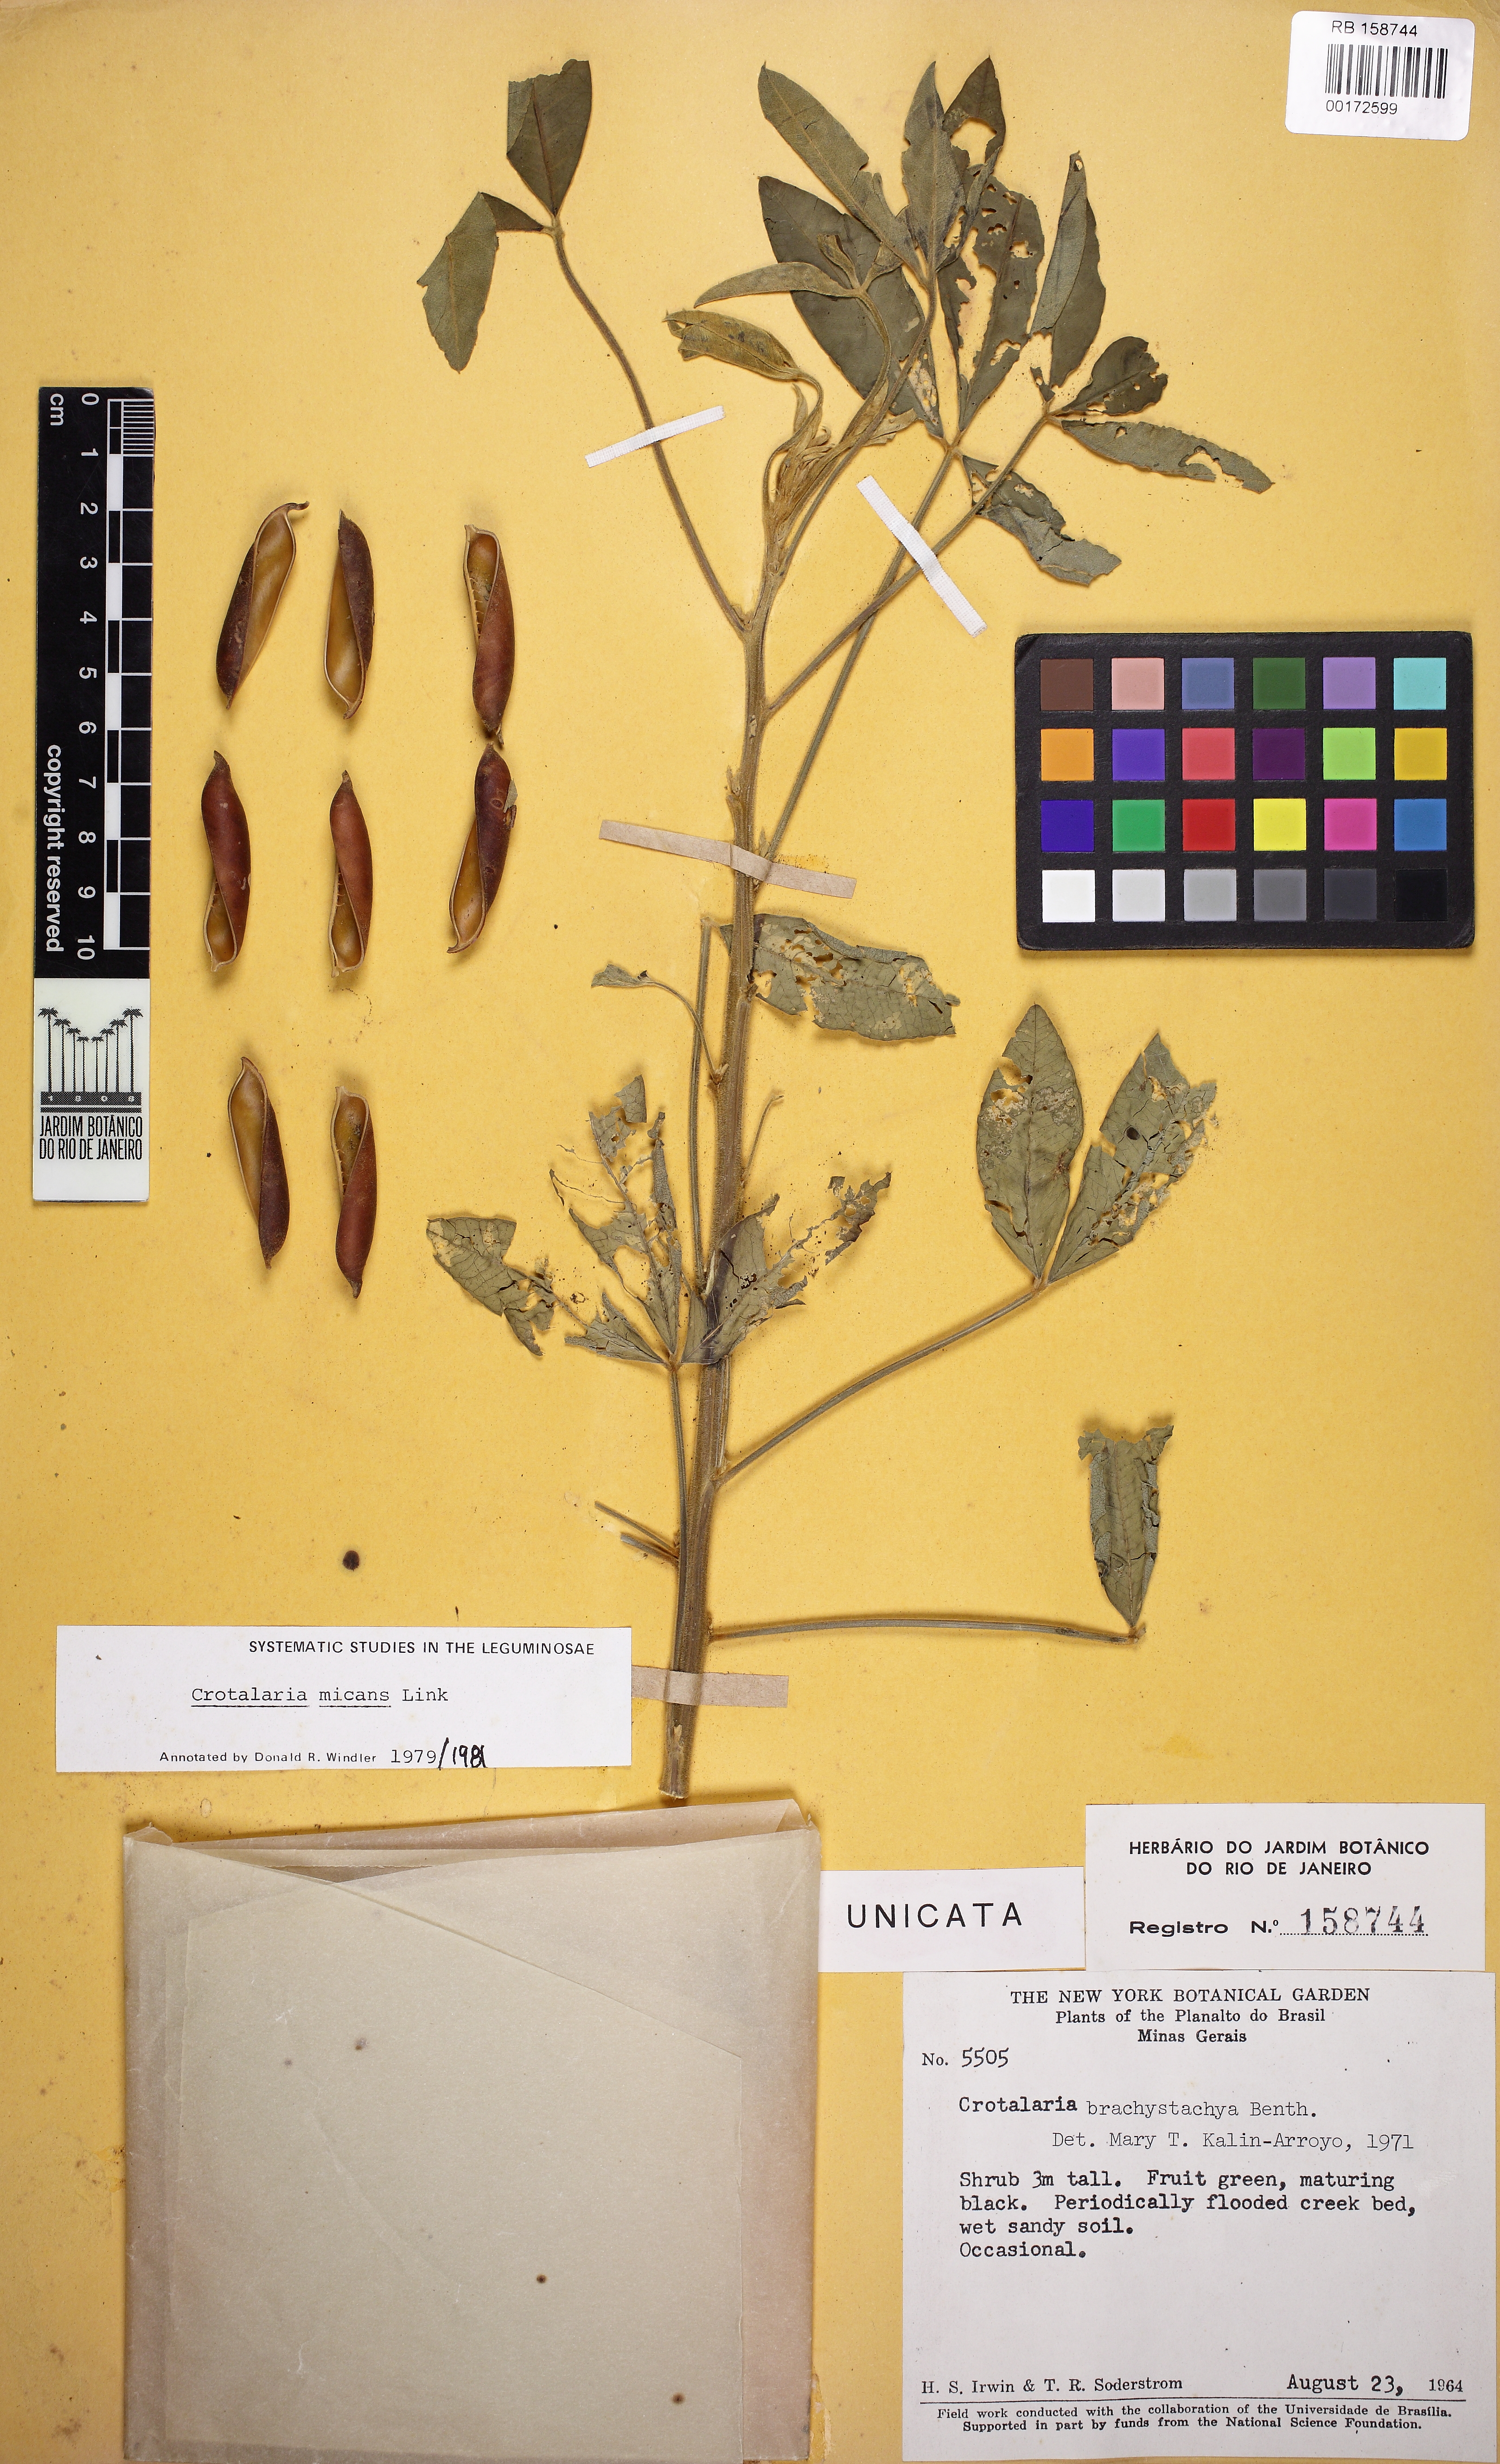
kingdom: Plantae
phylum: Tracheophyta
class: Magnoliopsida
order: Fabales
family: Fabaceae
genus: Crotalaria
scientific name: Crotalaria micans
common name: Caracas rattlebox
